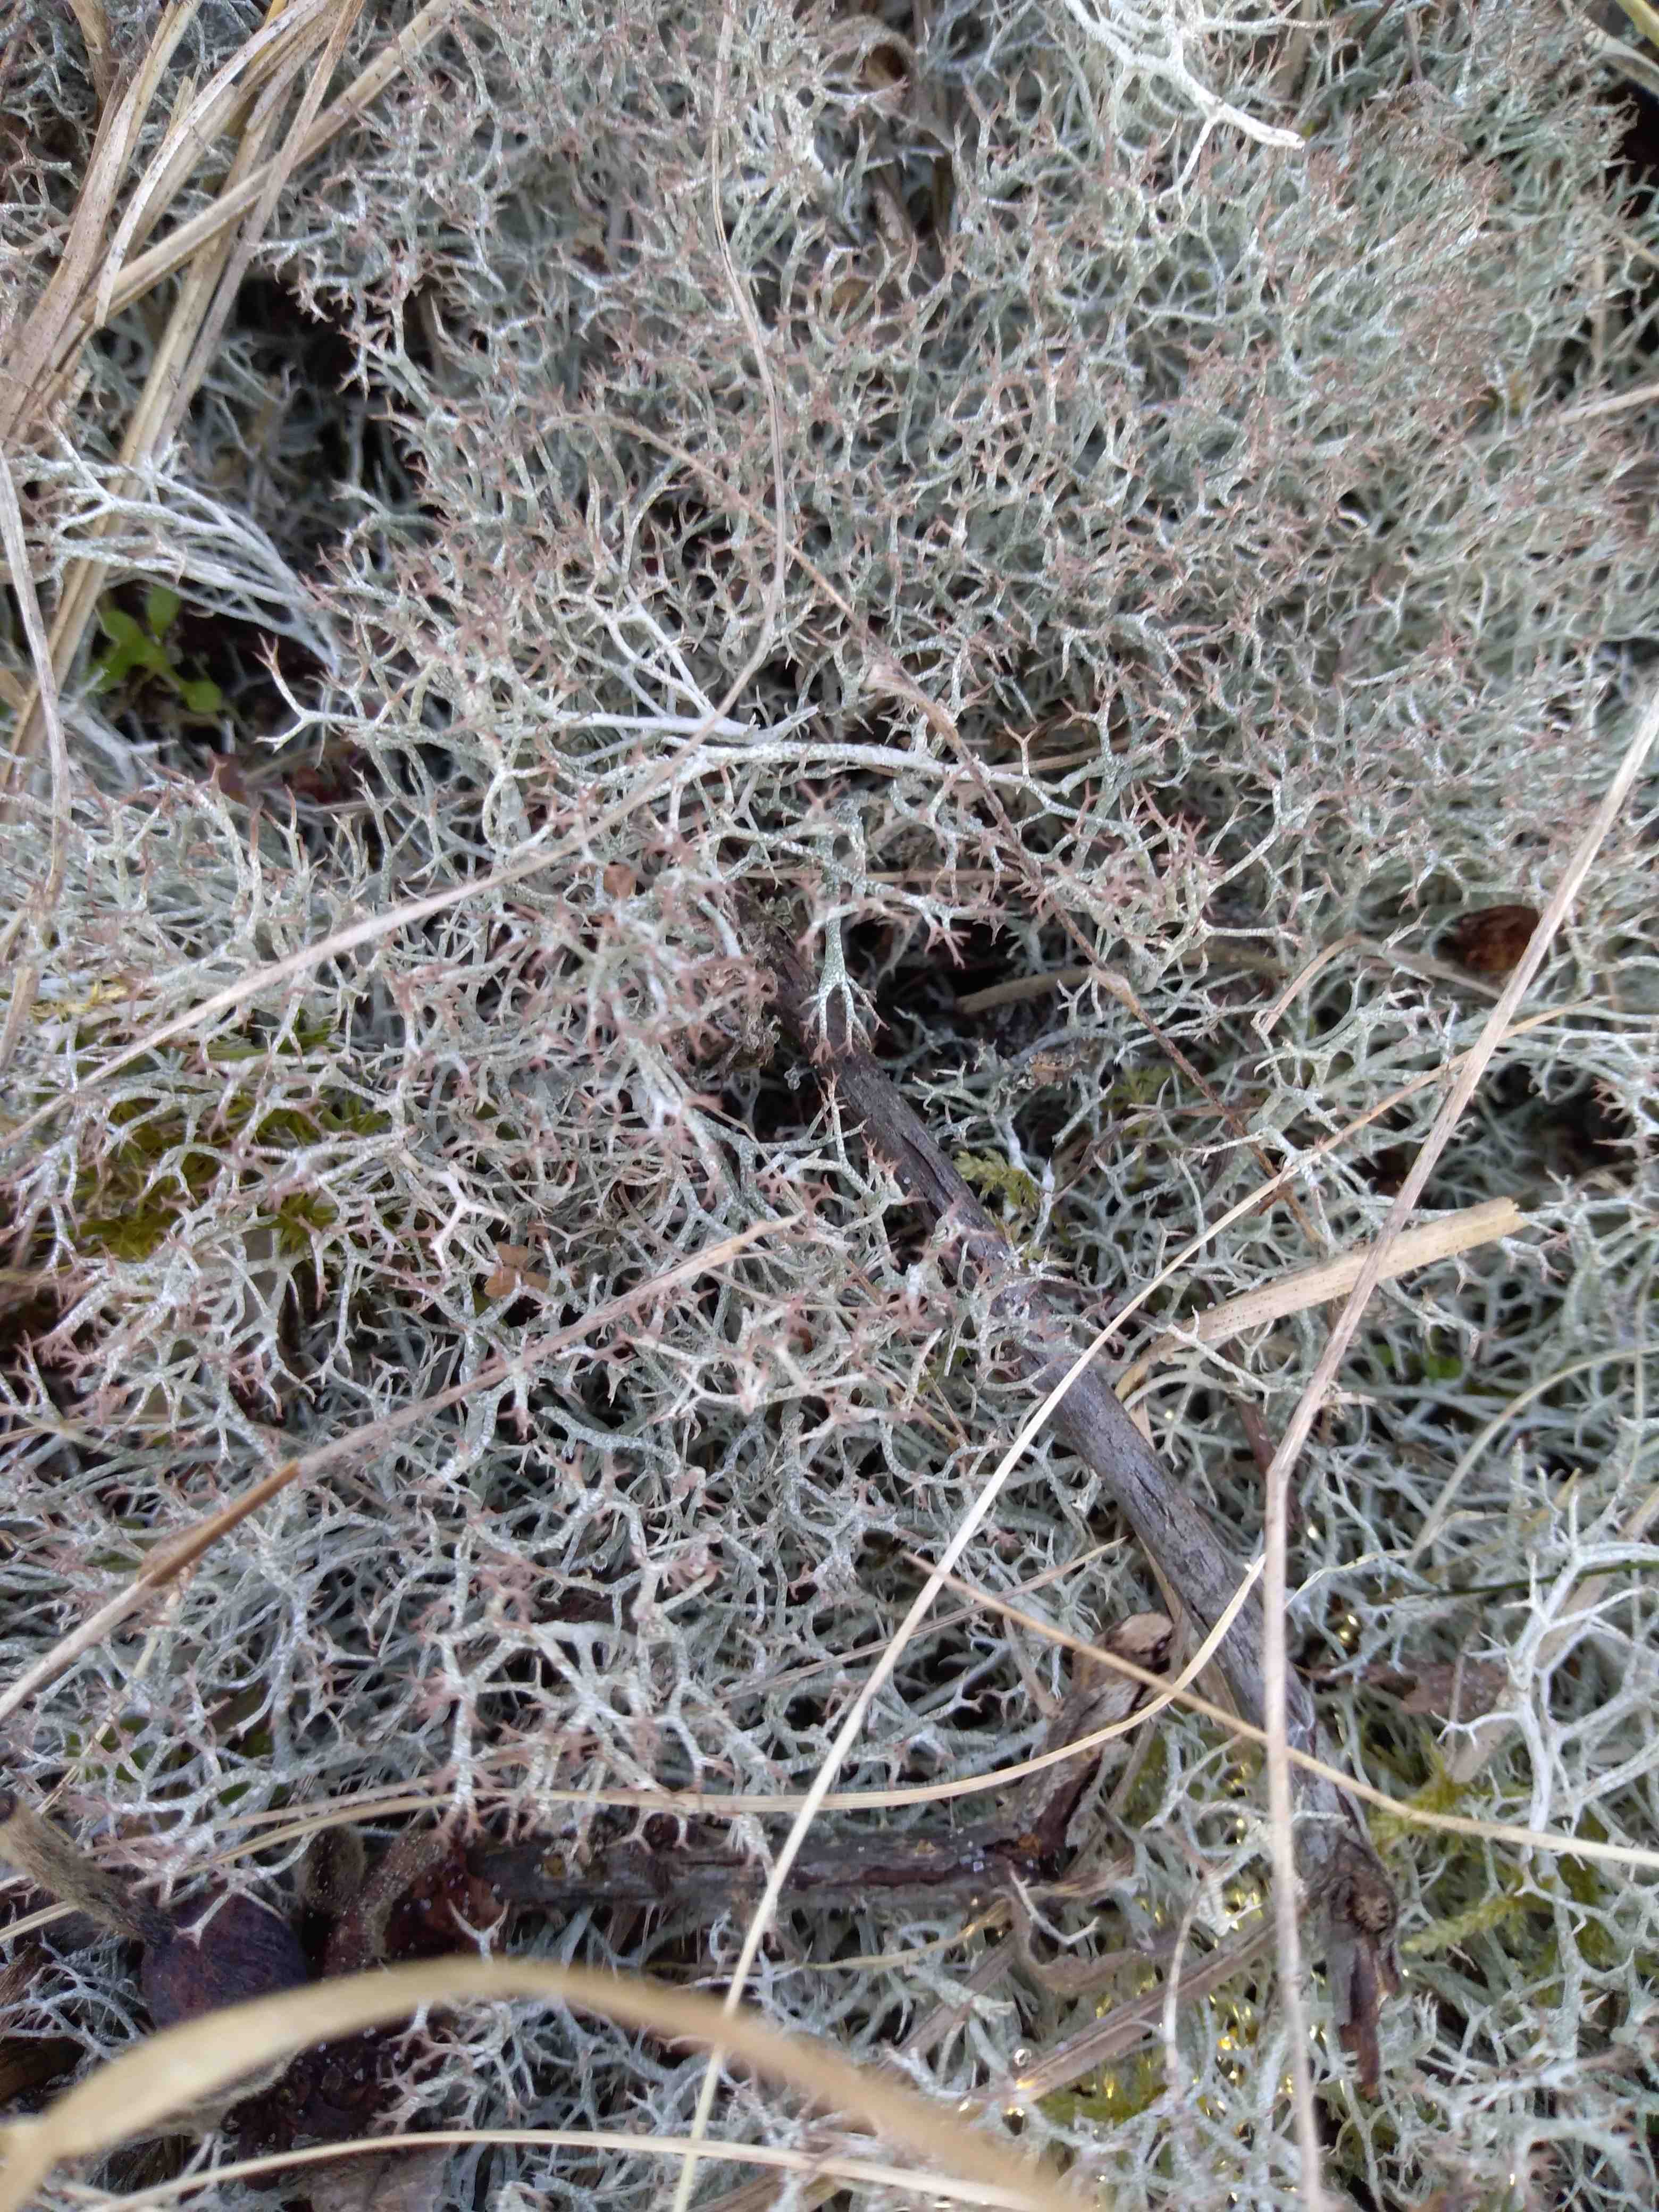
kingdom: Fungi
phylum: Ascomycota
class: Lecanoromycetes
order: Lecanorales
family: Cladoniaceae
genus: Cladonia
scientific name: Cladonia rangiformis
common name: spættet bægerlav
